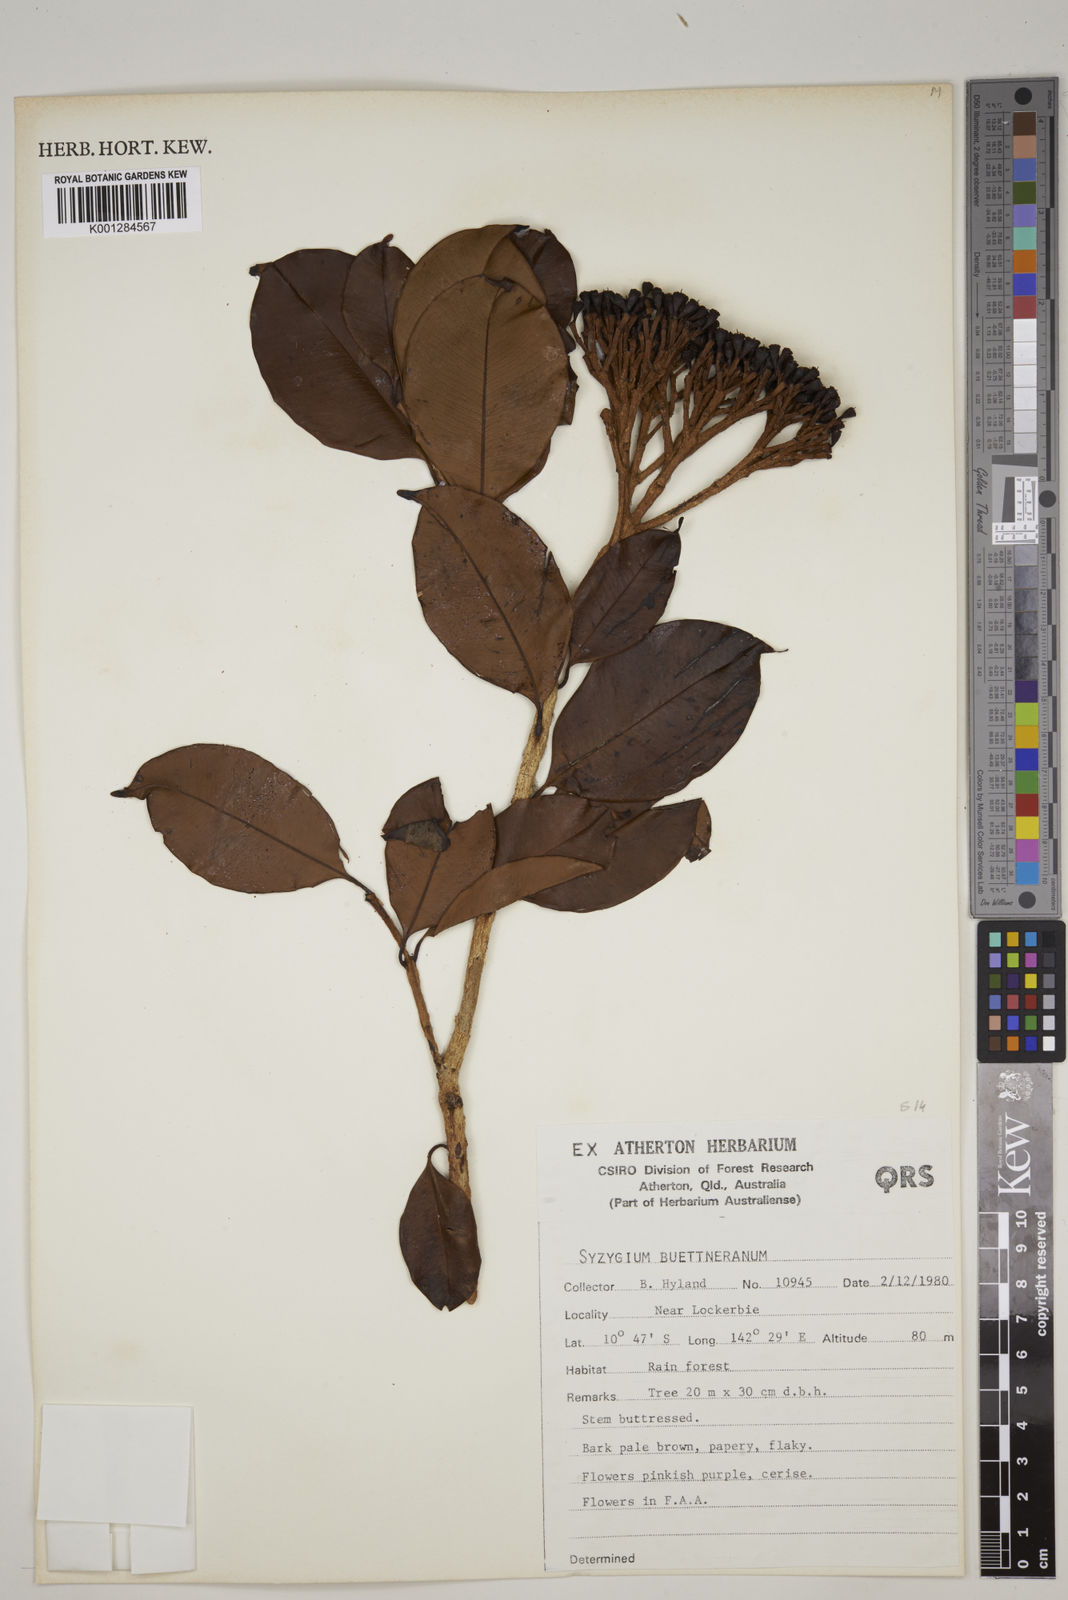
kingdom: Plantae
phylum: Tracheophyta
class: Magnoliopsida
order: Myrtales
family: Myrtaceae
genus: Syzygium
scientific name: Syzygium buettnerianum
